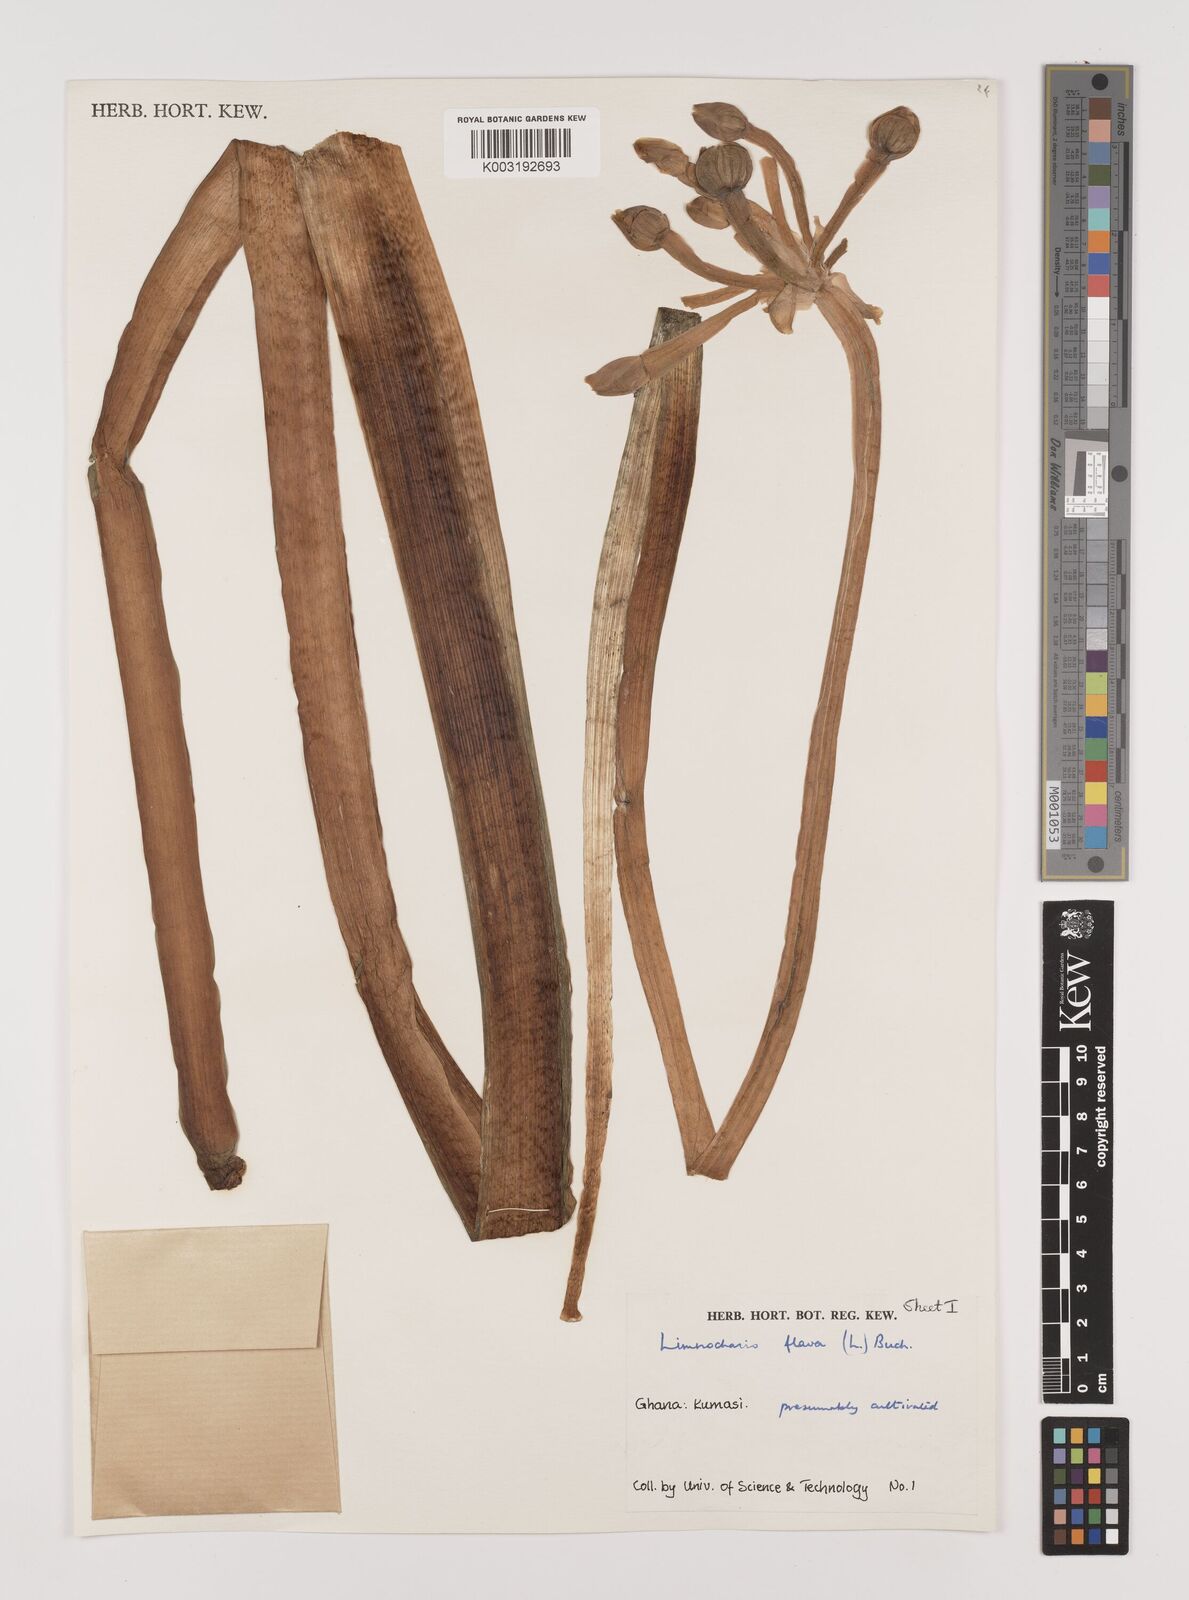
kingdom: Plantae
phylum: Tracheophyta
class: Liliopsida
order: Alismatales
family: Alismataceae
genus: Limnocharis
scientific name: Limnocharis flava
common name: Sawah-flower-rush
